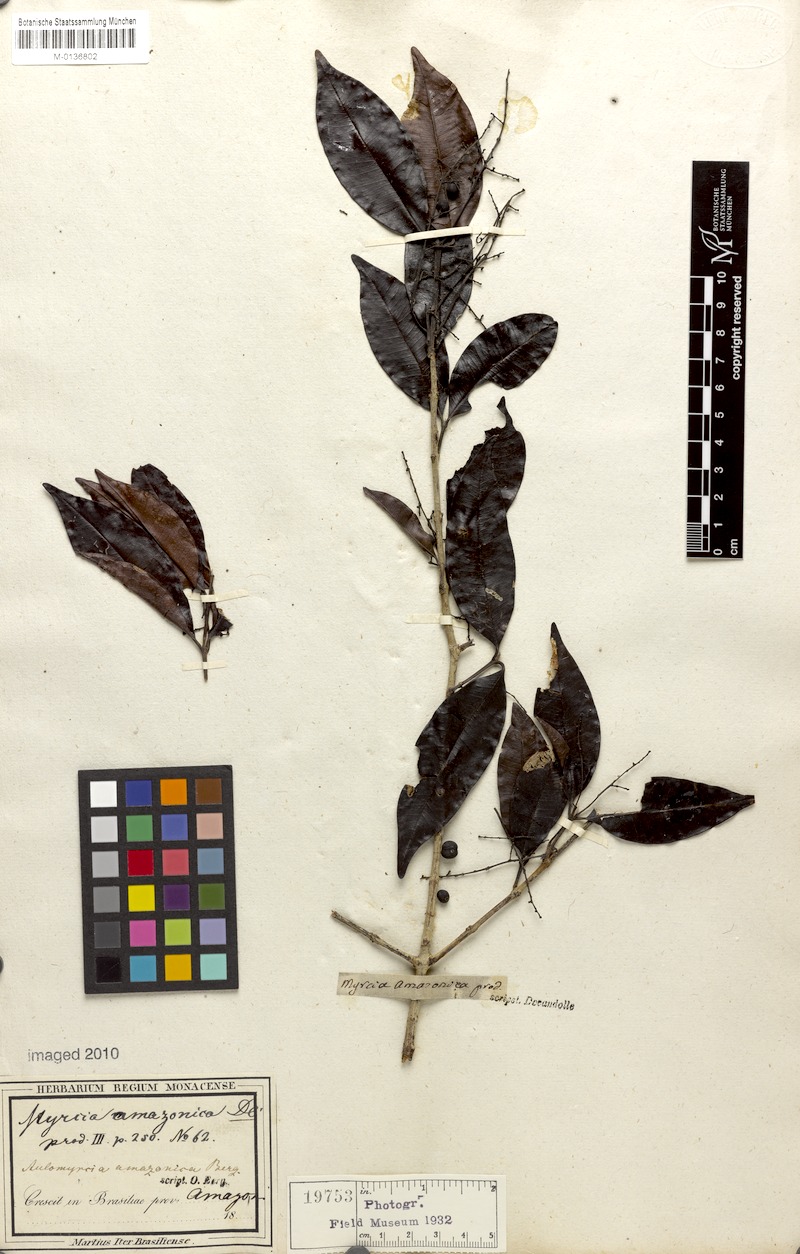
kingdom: Plantae
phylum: Tracheophyta
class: Magnoliopsida
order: Myrtales
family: Myrtaceae
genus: Myrcia
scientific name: Myrcia amazonica
